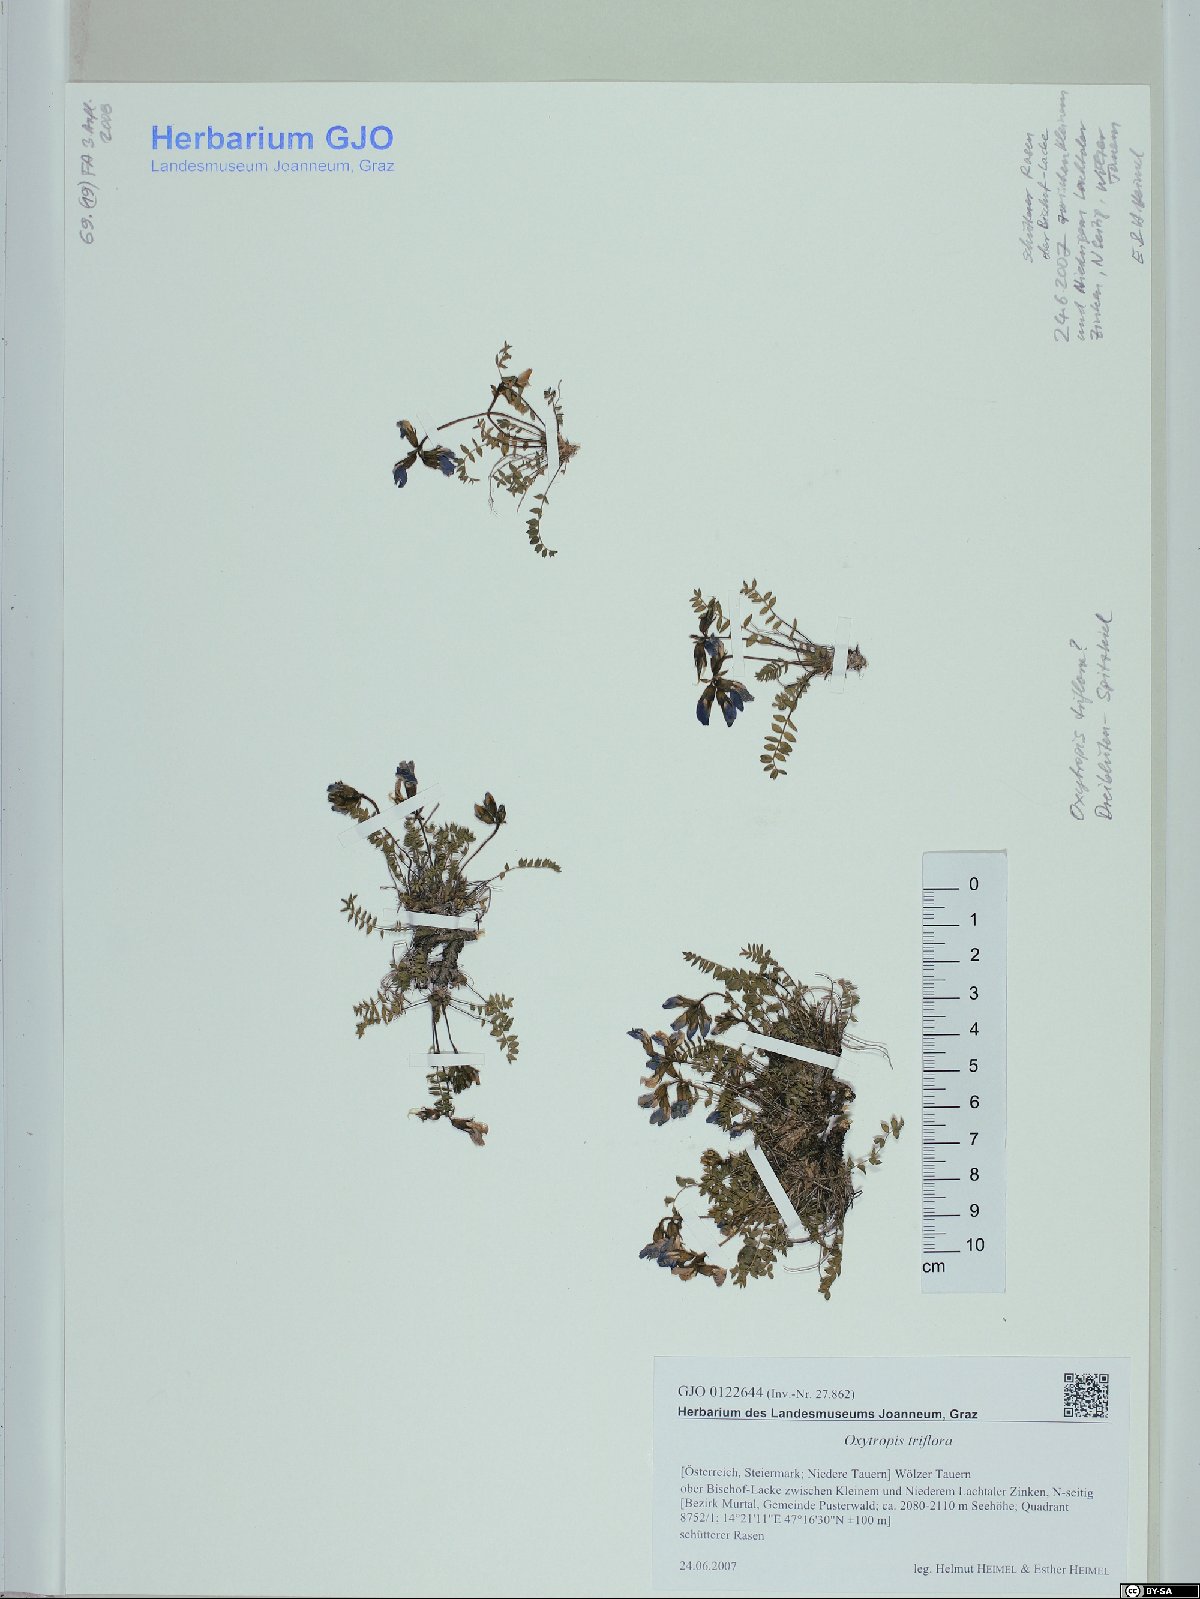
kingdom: Plantae
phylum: Tracheophyta
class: Magnoliopsida
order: Fabales
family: Fabaceae
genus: Oxytropis
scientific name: Oxytropis triflora
